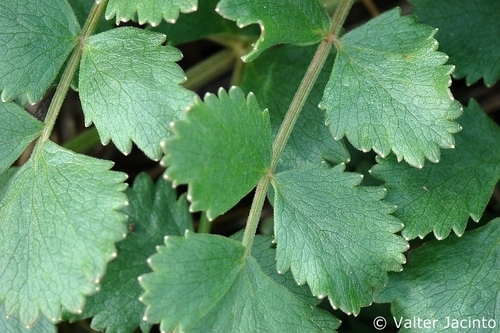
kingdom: Plantae
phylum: Tracheophyta
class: Magnoliopsida
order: Apiales
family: Apiaceae
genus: Pimpinella
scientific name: Pimpinella villosa
